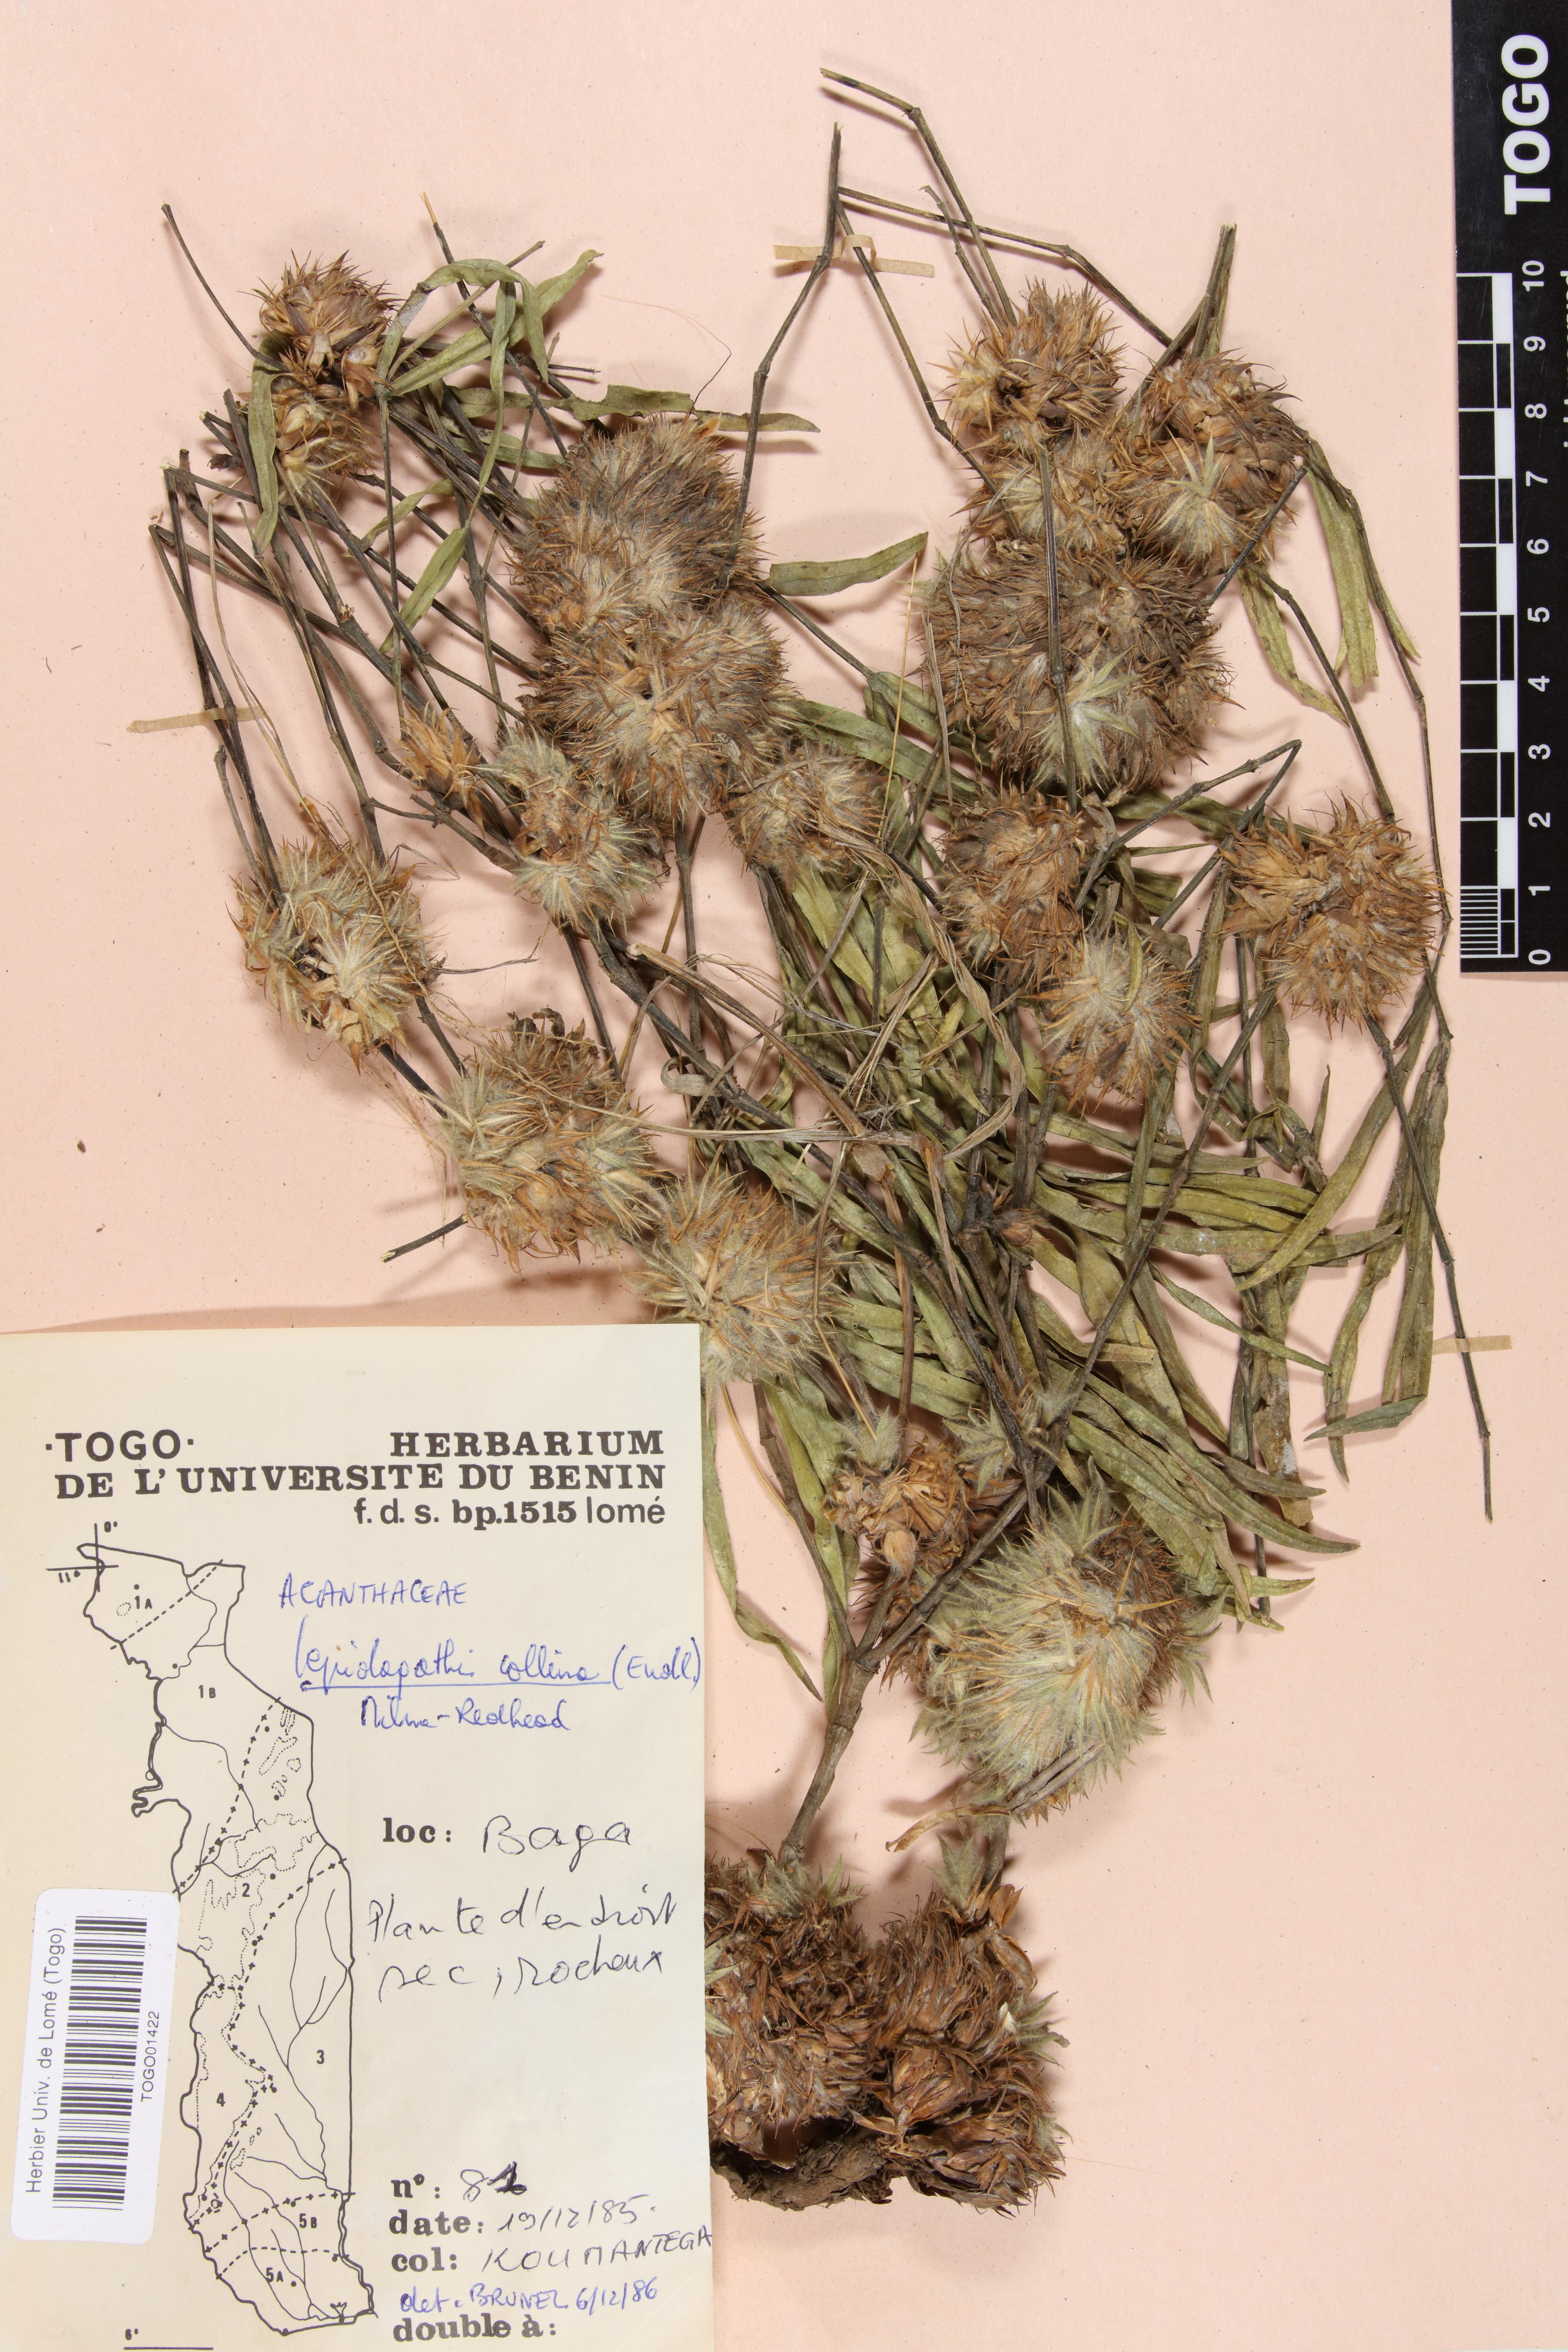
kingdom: Plantae
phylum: Tracheophyta
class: Magnoliopsida
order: Lamiales
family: Acanthaceae
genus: Lepidagathis
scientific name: Lepidagathis collina
